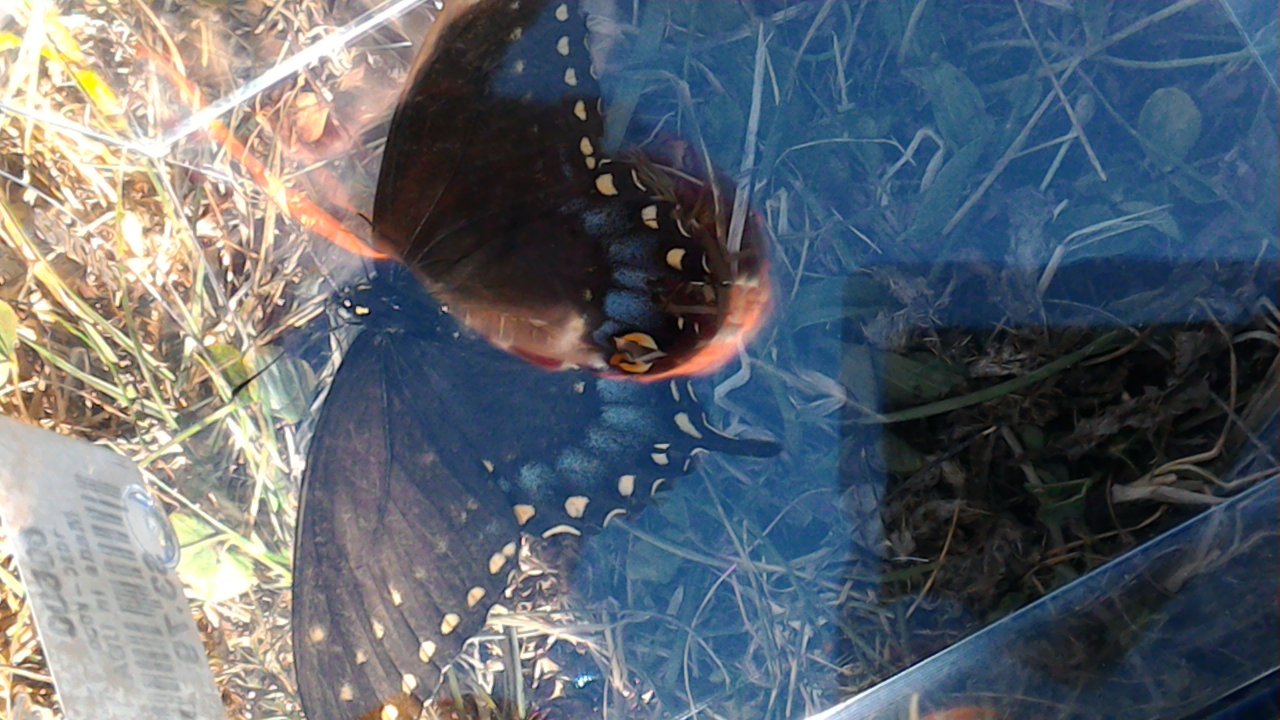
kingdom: Animalia
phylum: Arthropoda
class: Insecta
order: Lepidoptera
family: Papilionidae
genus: Papilio
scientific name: Papilio polyxenes
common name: Black Swallowtail
